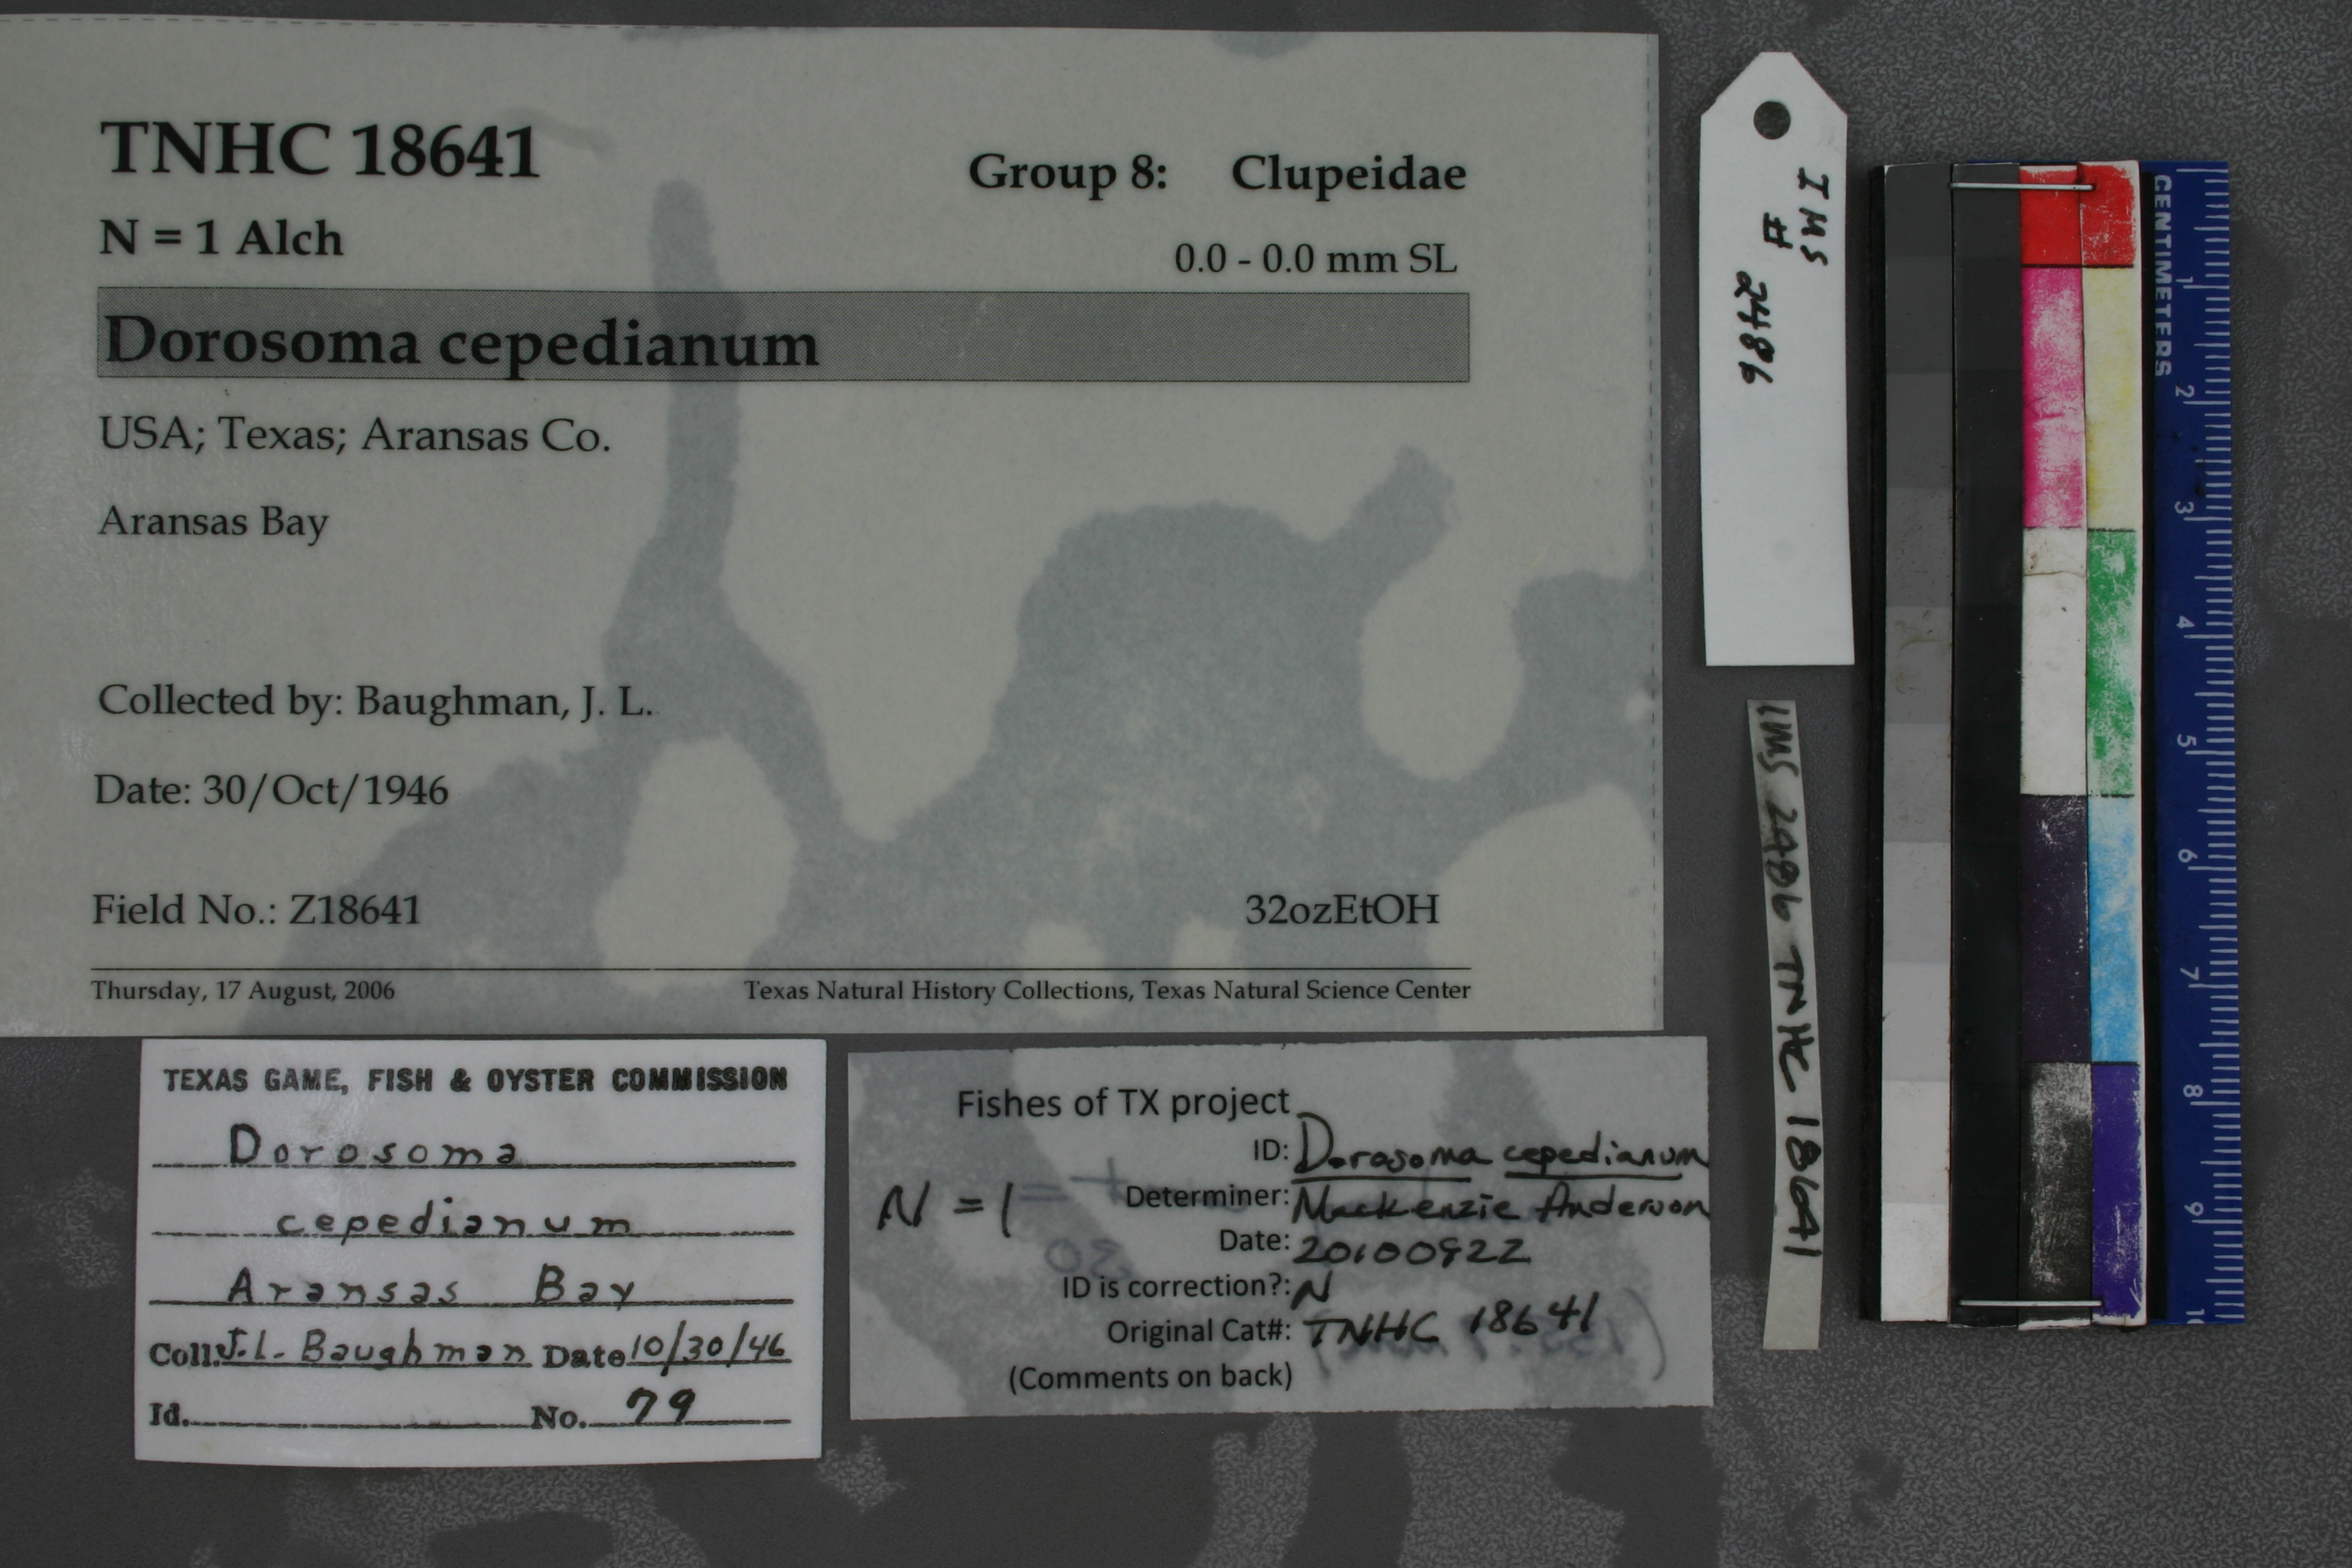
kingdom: Animalia
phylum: Chordata
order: Clupeiformes
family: Clupeidae
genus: Dorosoma
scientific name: Dorosoma cepedianum
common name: Gizzard shad
